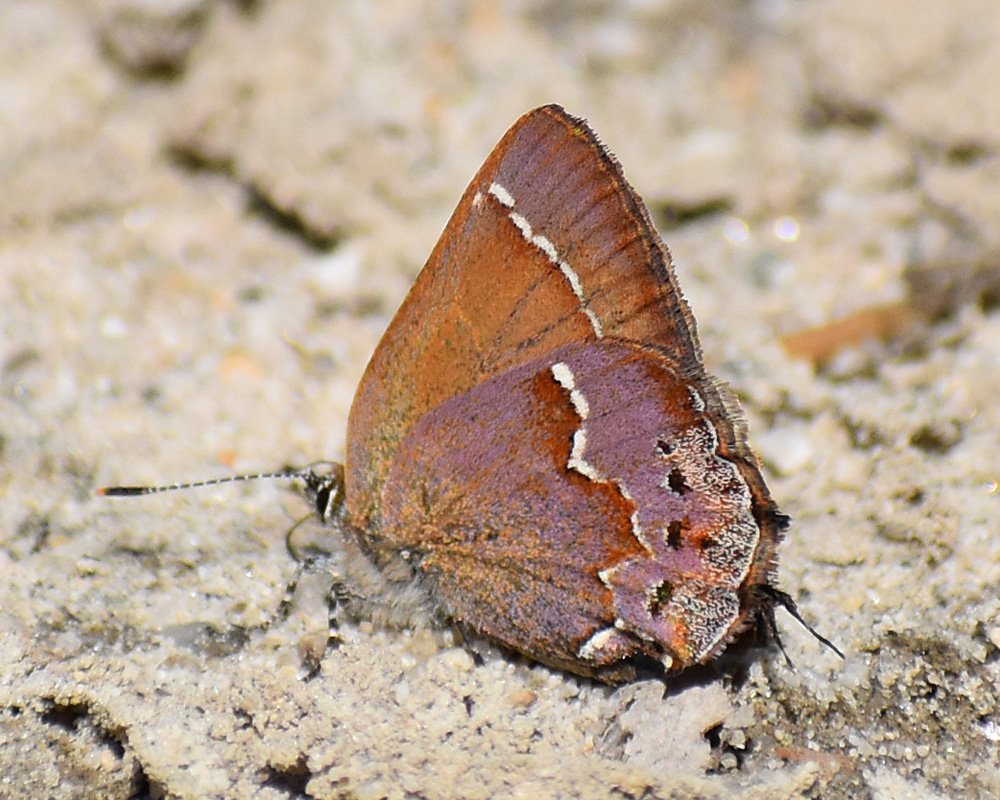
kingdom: Animalia
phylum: Arthropoda
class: Insecta
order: Lepidoptera
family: Lycaenidae
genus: Mitoura
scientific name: Mitoura nelsoni
